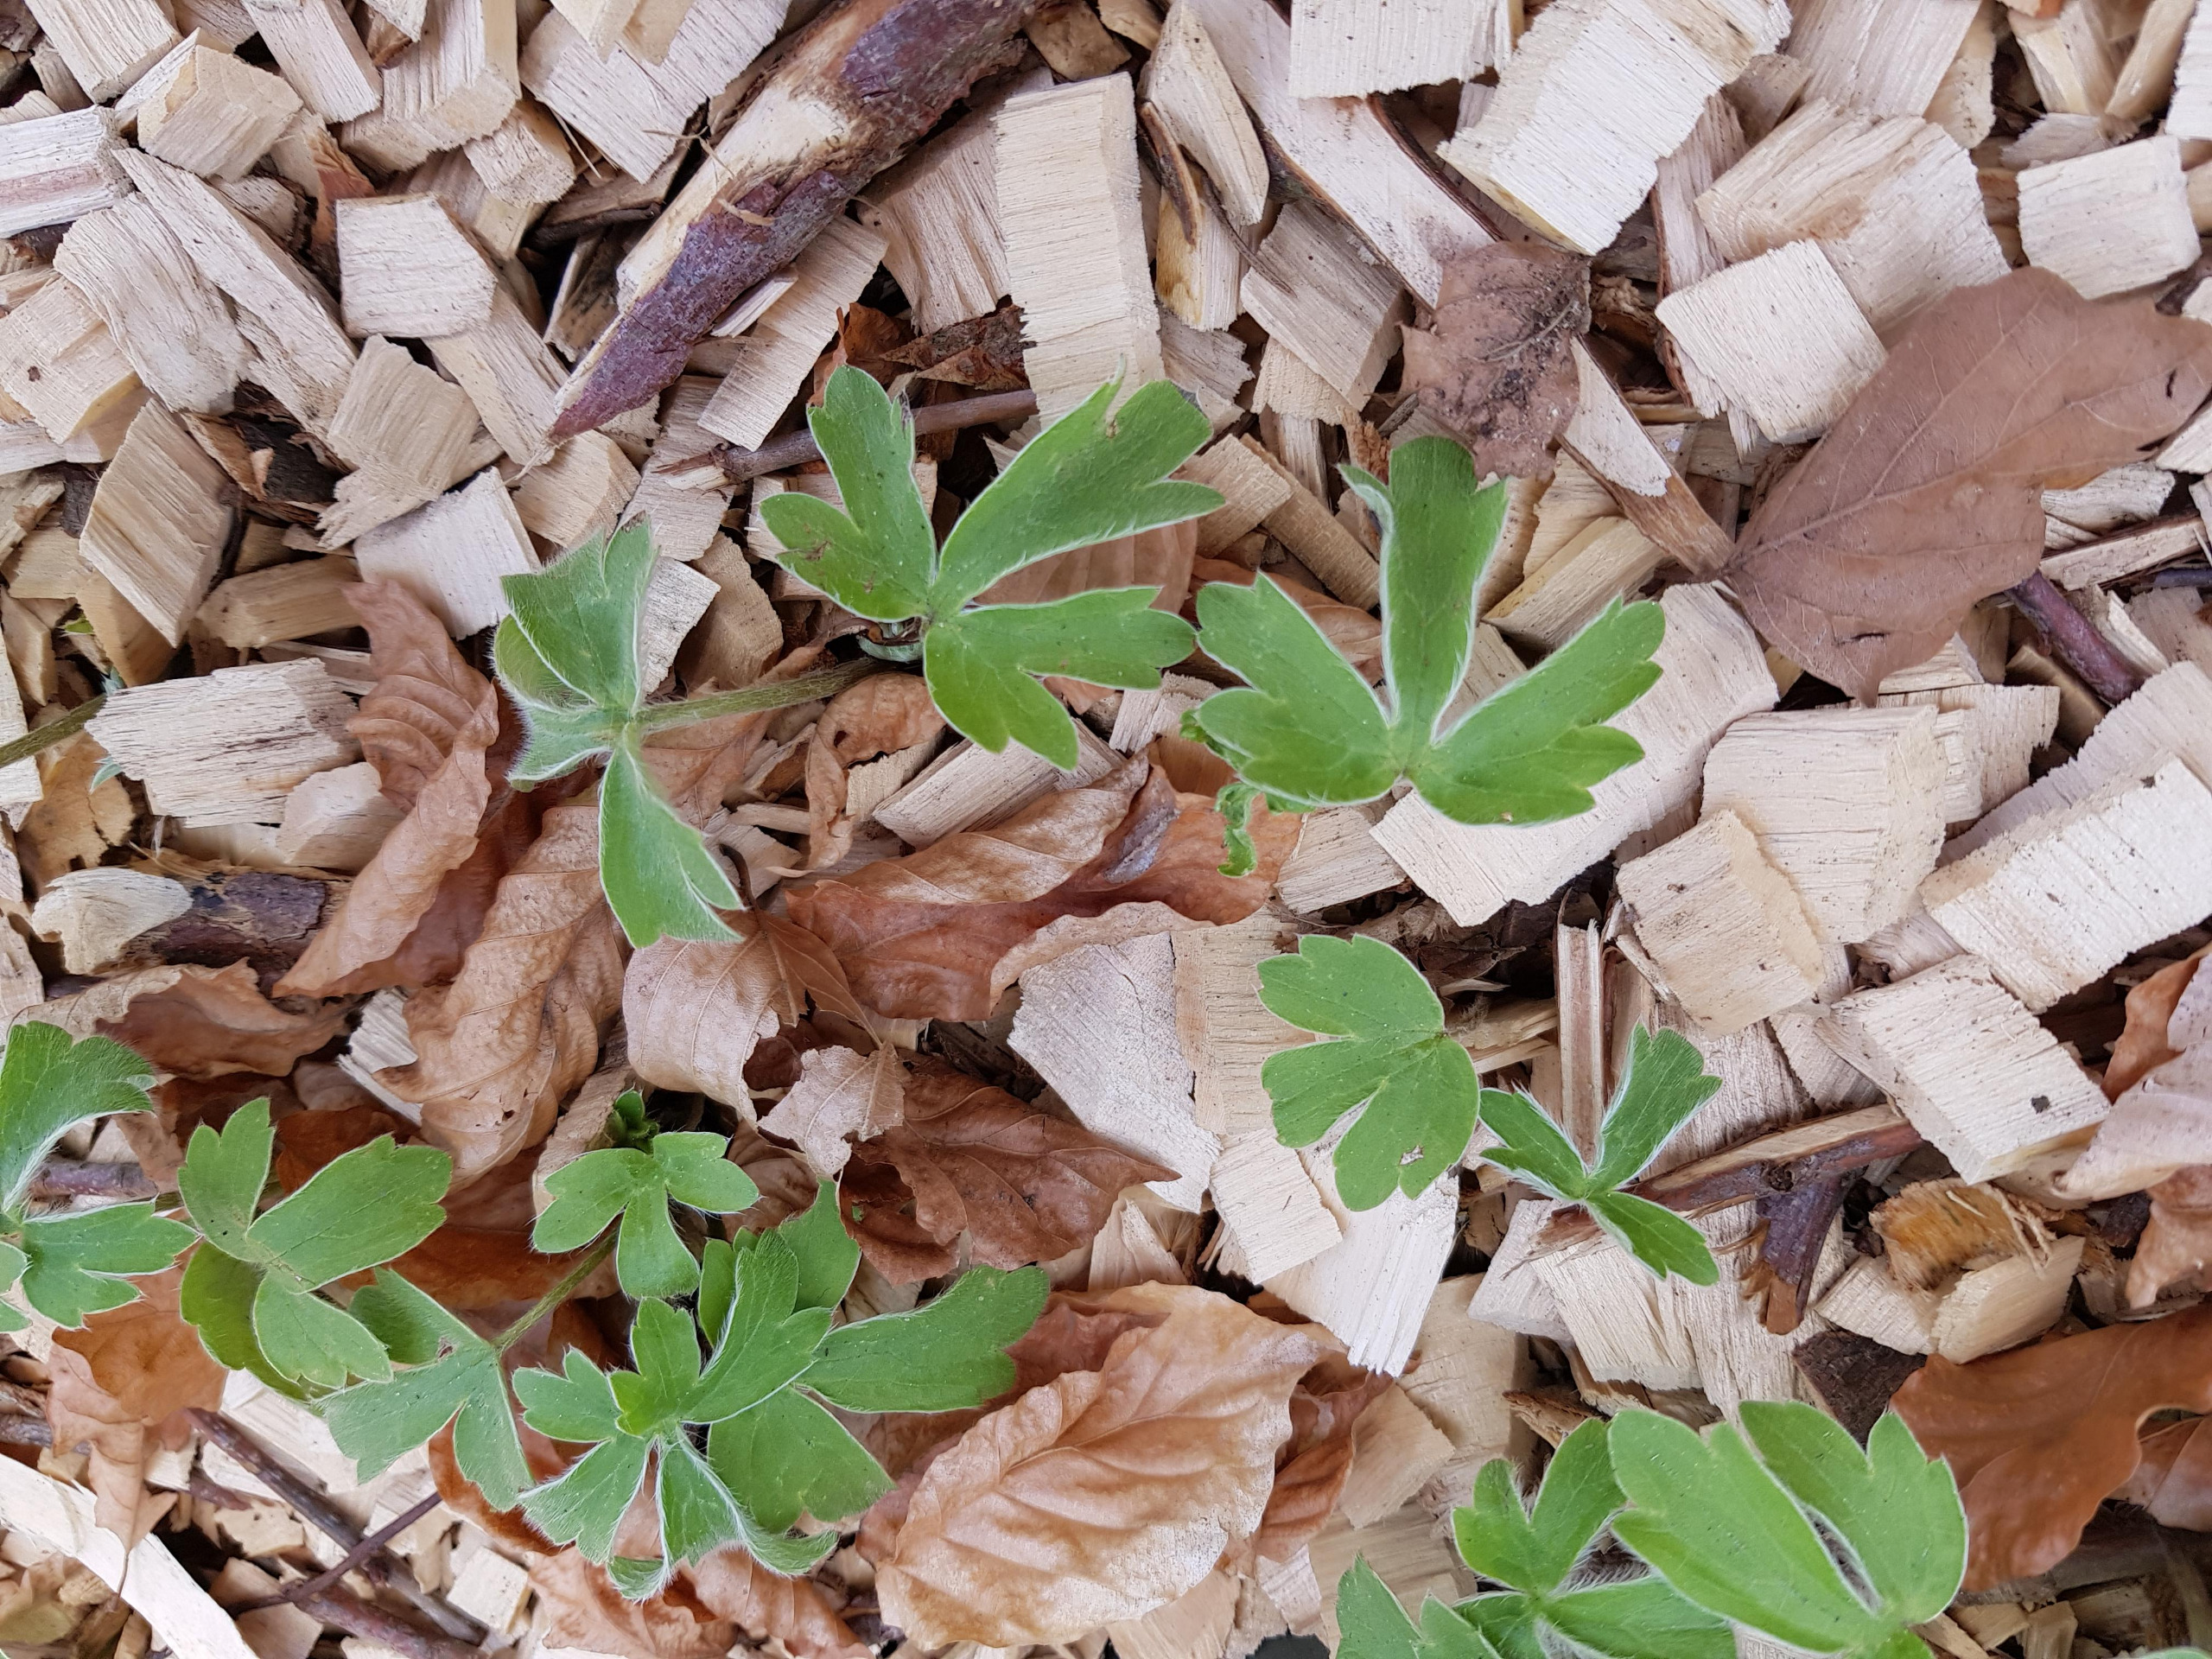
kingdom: Plantae
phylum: Tracheophyta
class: Magnoliopsida
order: Ranunculales
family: Ranunculaceae
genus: Ranunculus
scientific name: Ranunculus psilostachys
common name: Balkan-ranunkel
